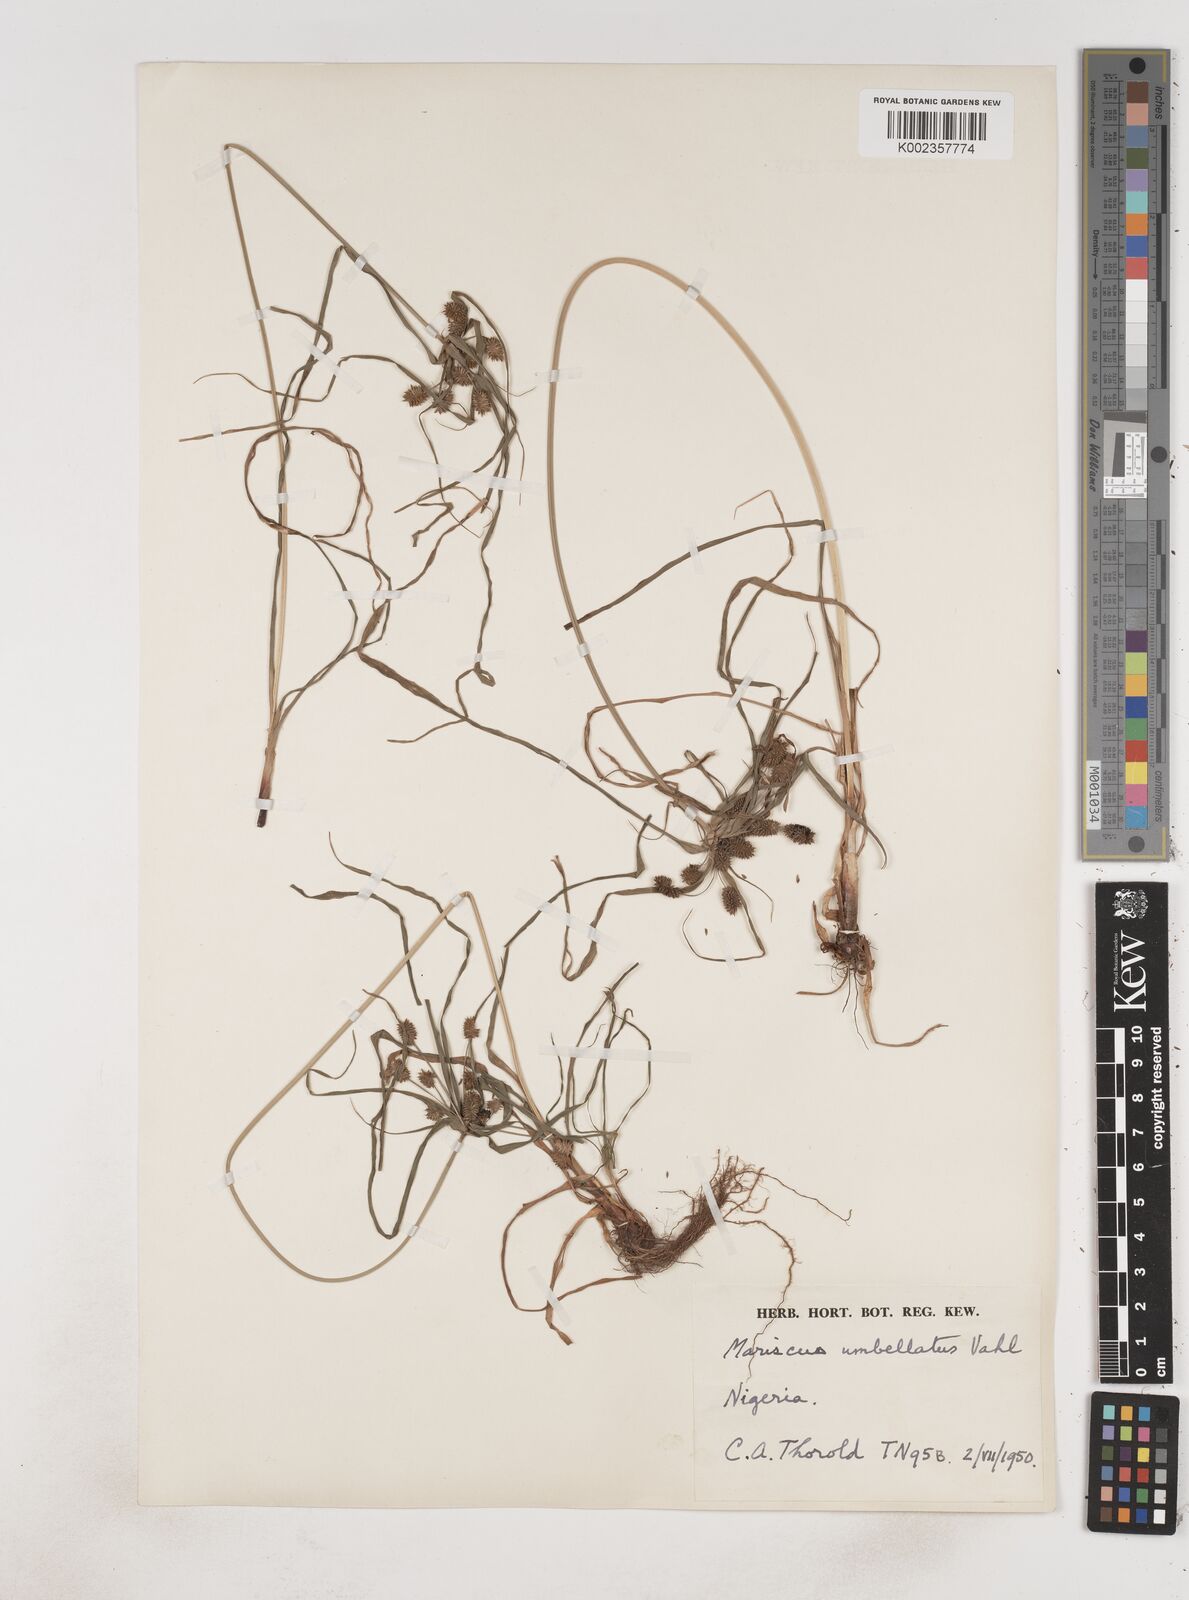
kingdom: Plantae
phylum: Tracheophyta
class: Liliopsida
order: Poales
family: Cyperaceae
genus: Cyperus
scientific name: Cyperus sublimis
